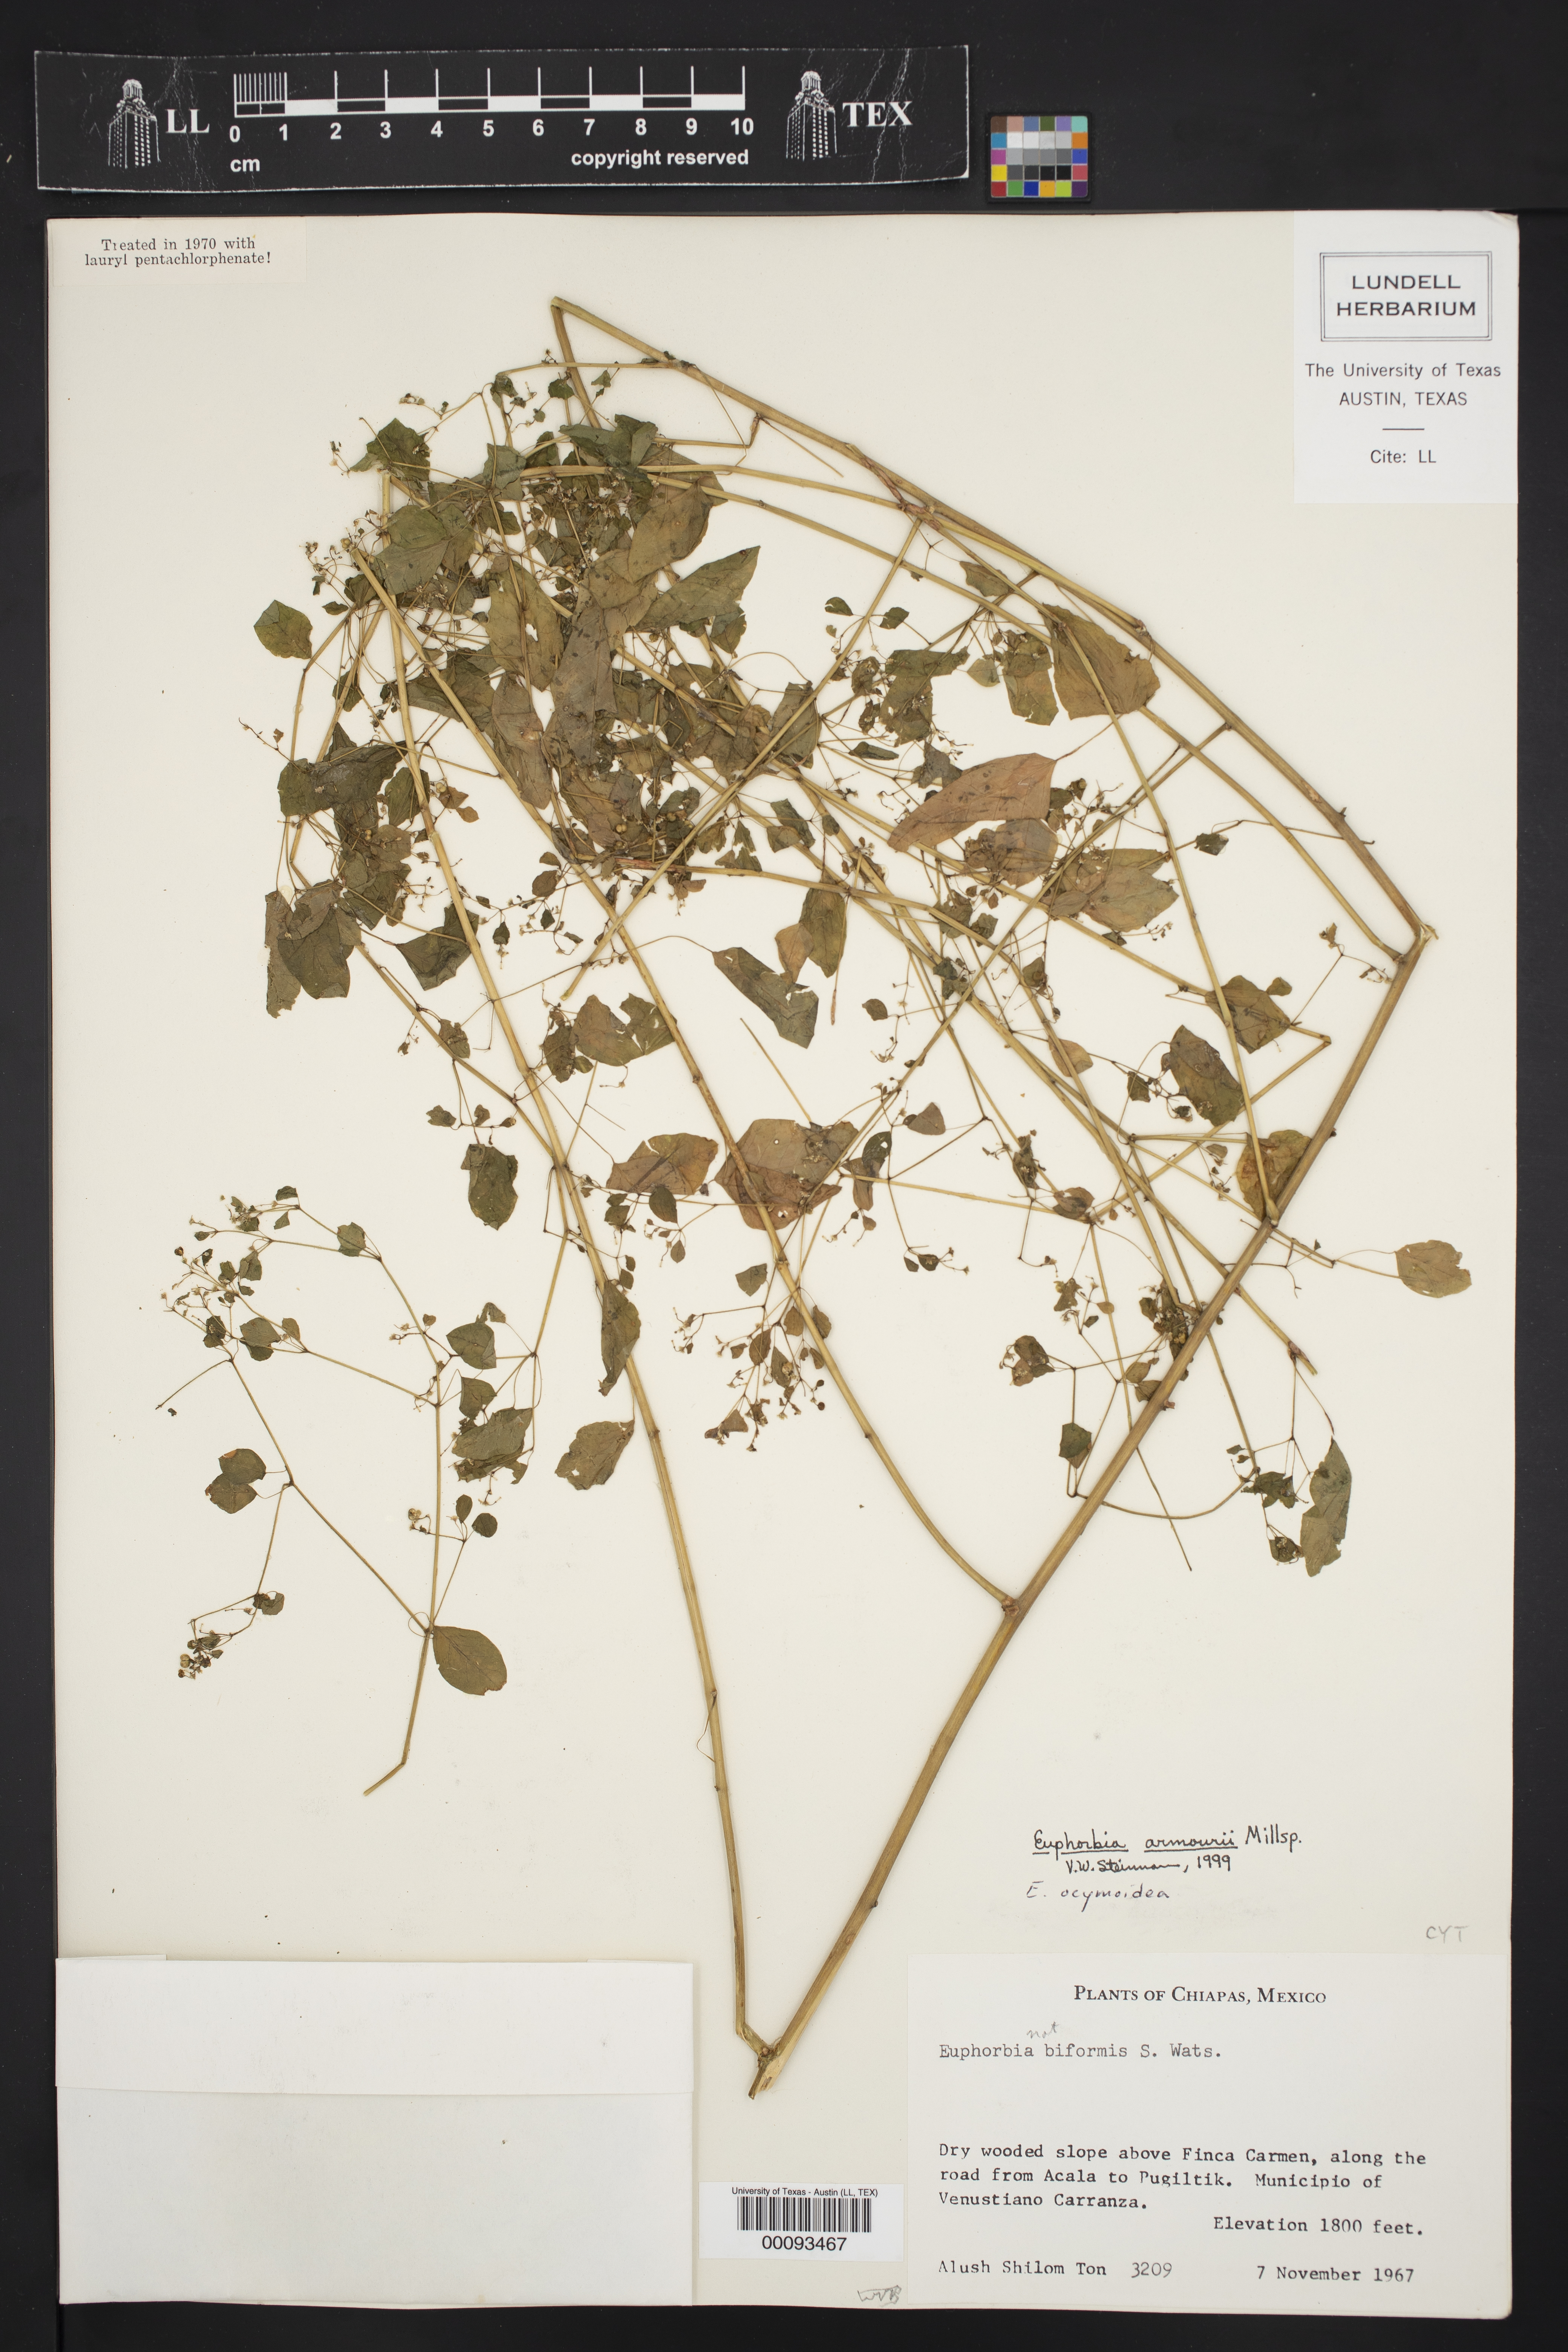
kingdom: Plantae
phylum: Tracheophyta
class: Magnoliopsida
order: Malpighiales
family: Euphorbiaceae
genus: Euphorbia
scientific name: Euphorbia armourii
